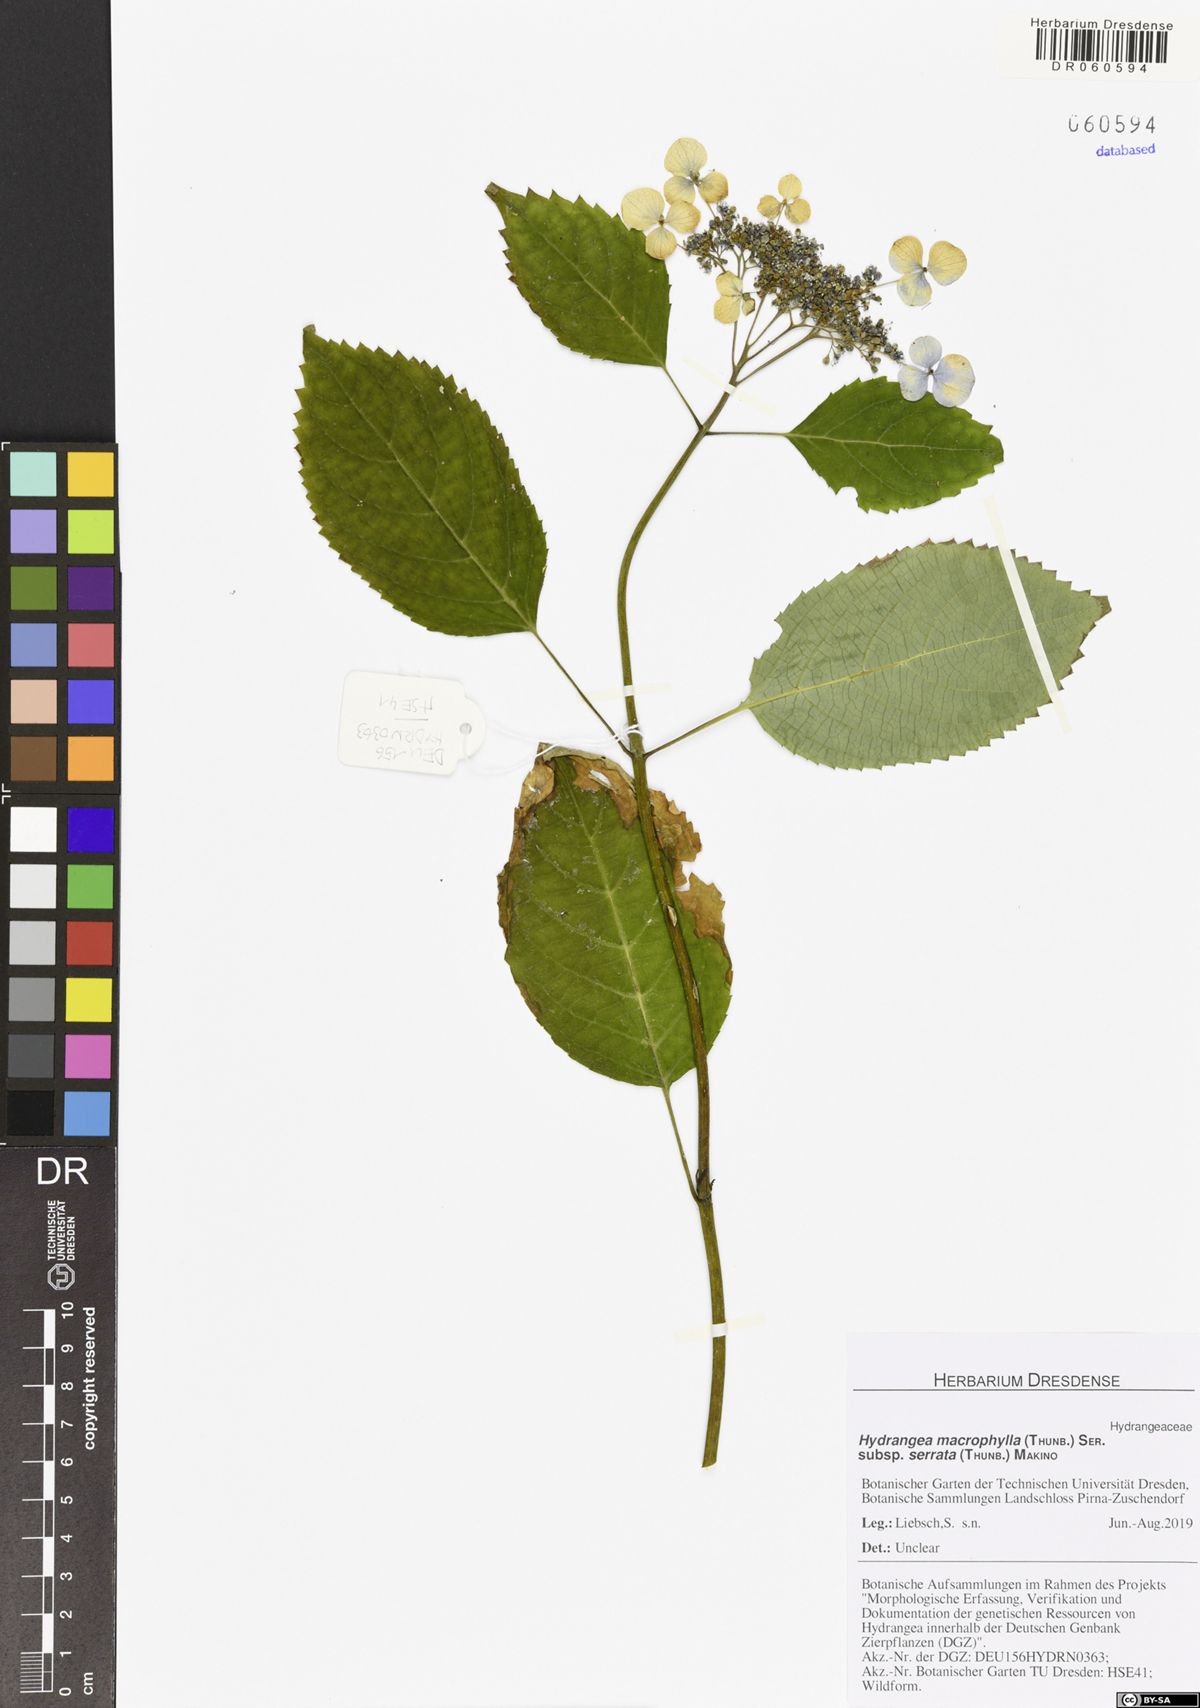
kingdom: Plantae
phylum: Tracheophyta
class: Magnoliopsida
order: Cornales
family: Hydrangeaceae
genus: Hydrangea
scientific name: Hydrangea serrata
